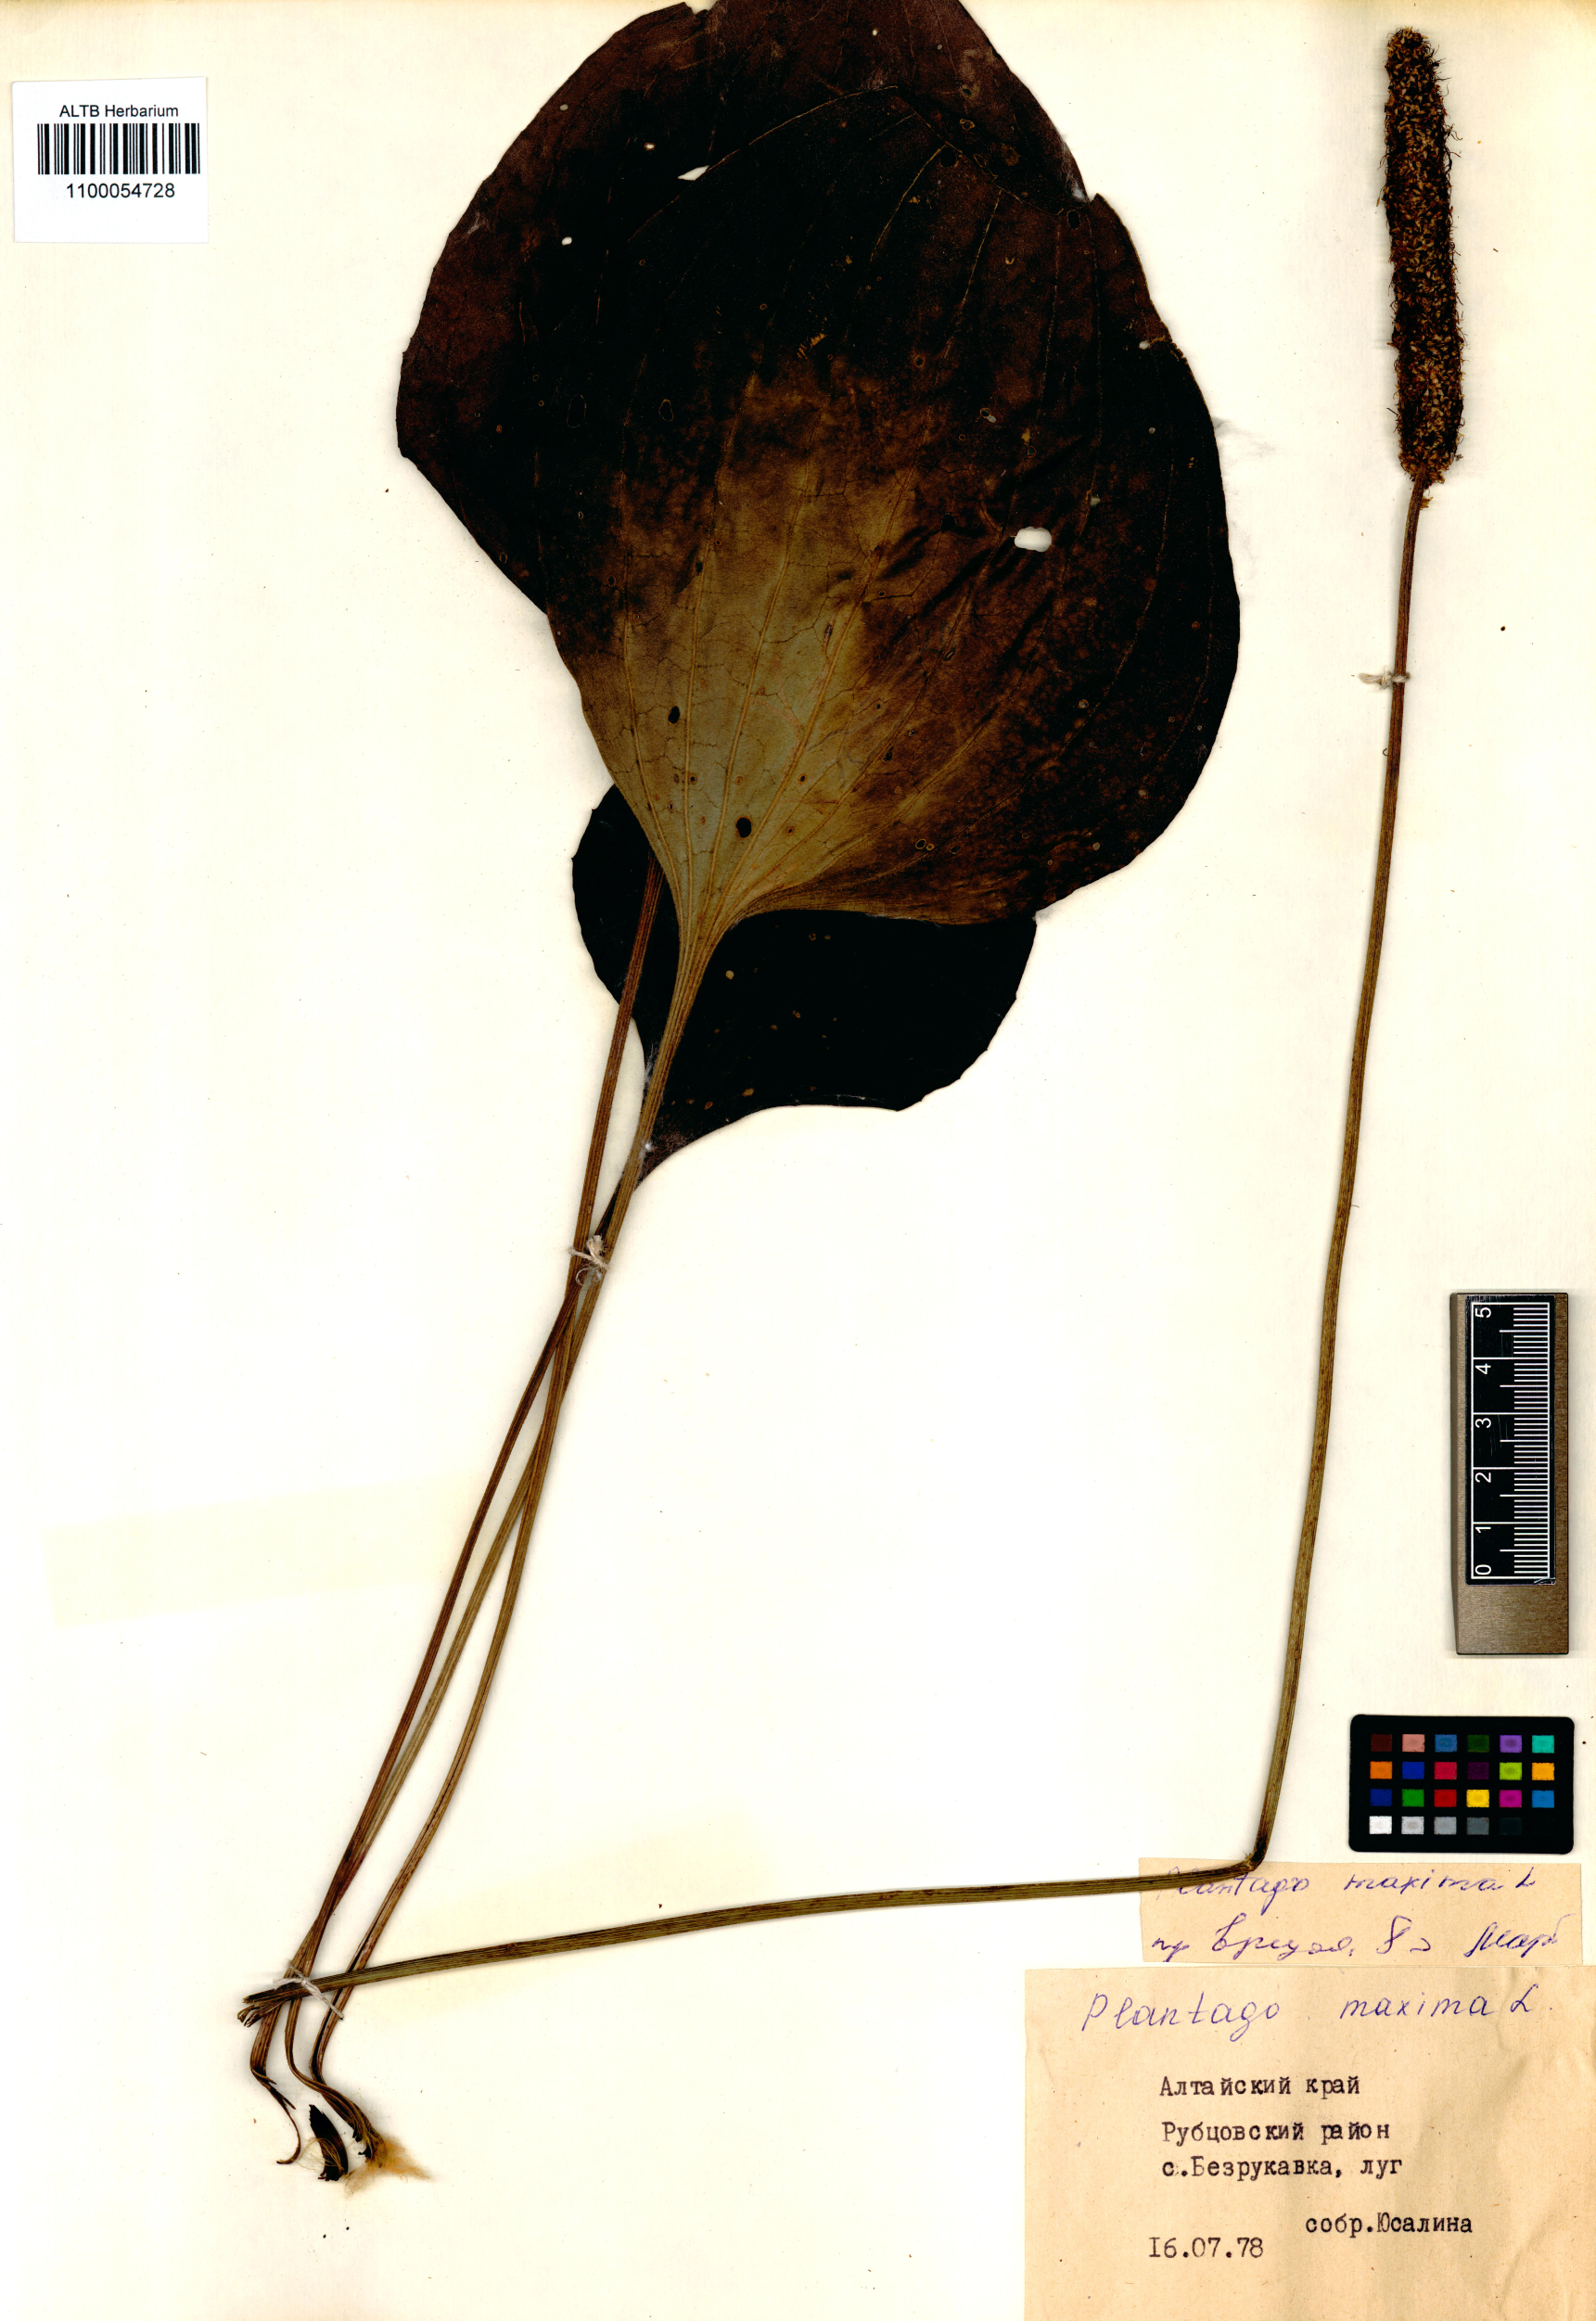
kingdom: Plantae
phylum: Tracheophyta
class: Magnoliopsida
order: Lamiales
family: Plantaginaceae
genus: Plantago
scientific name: Plantago maxima
